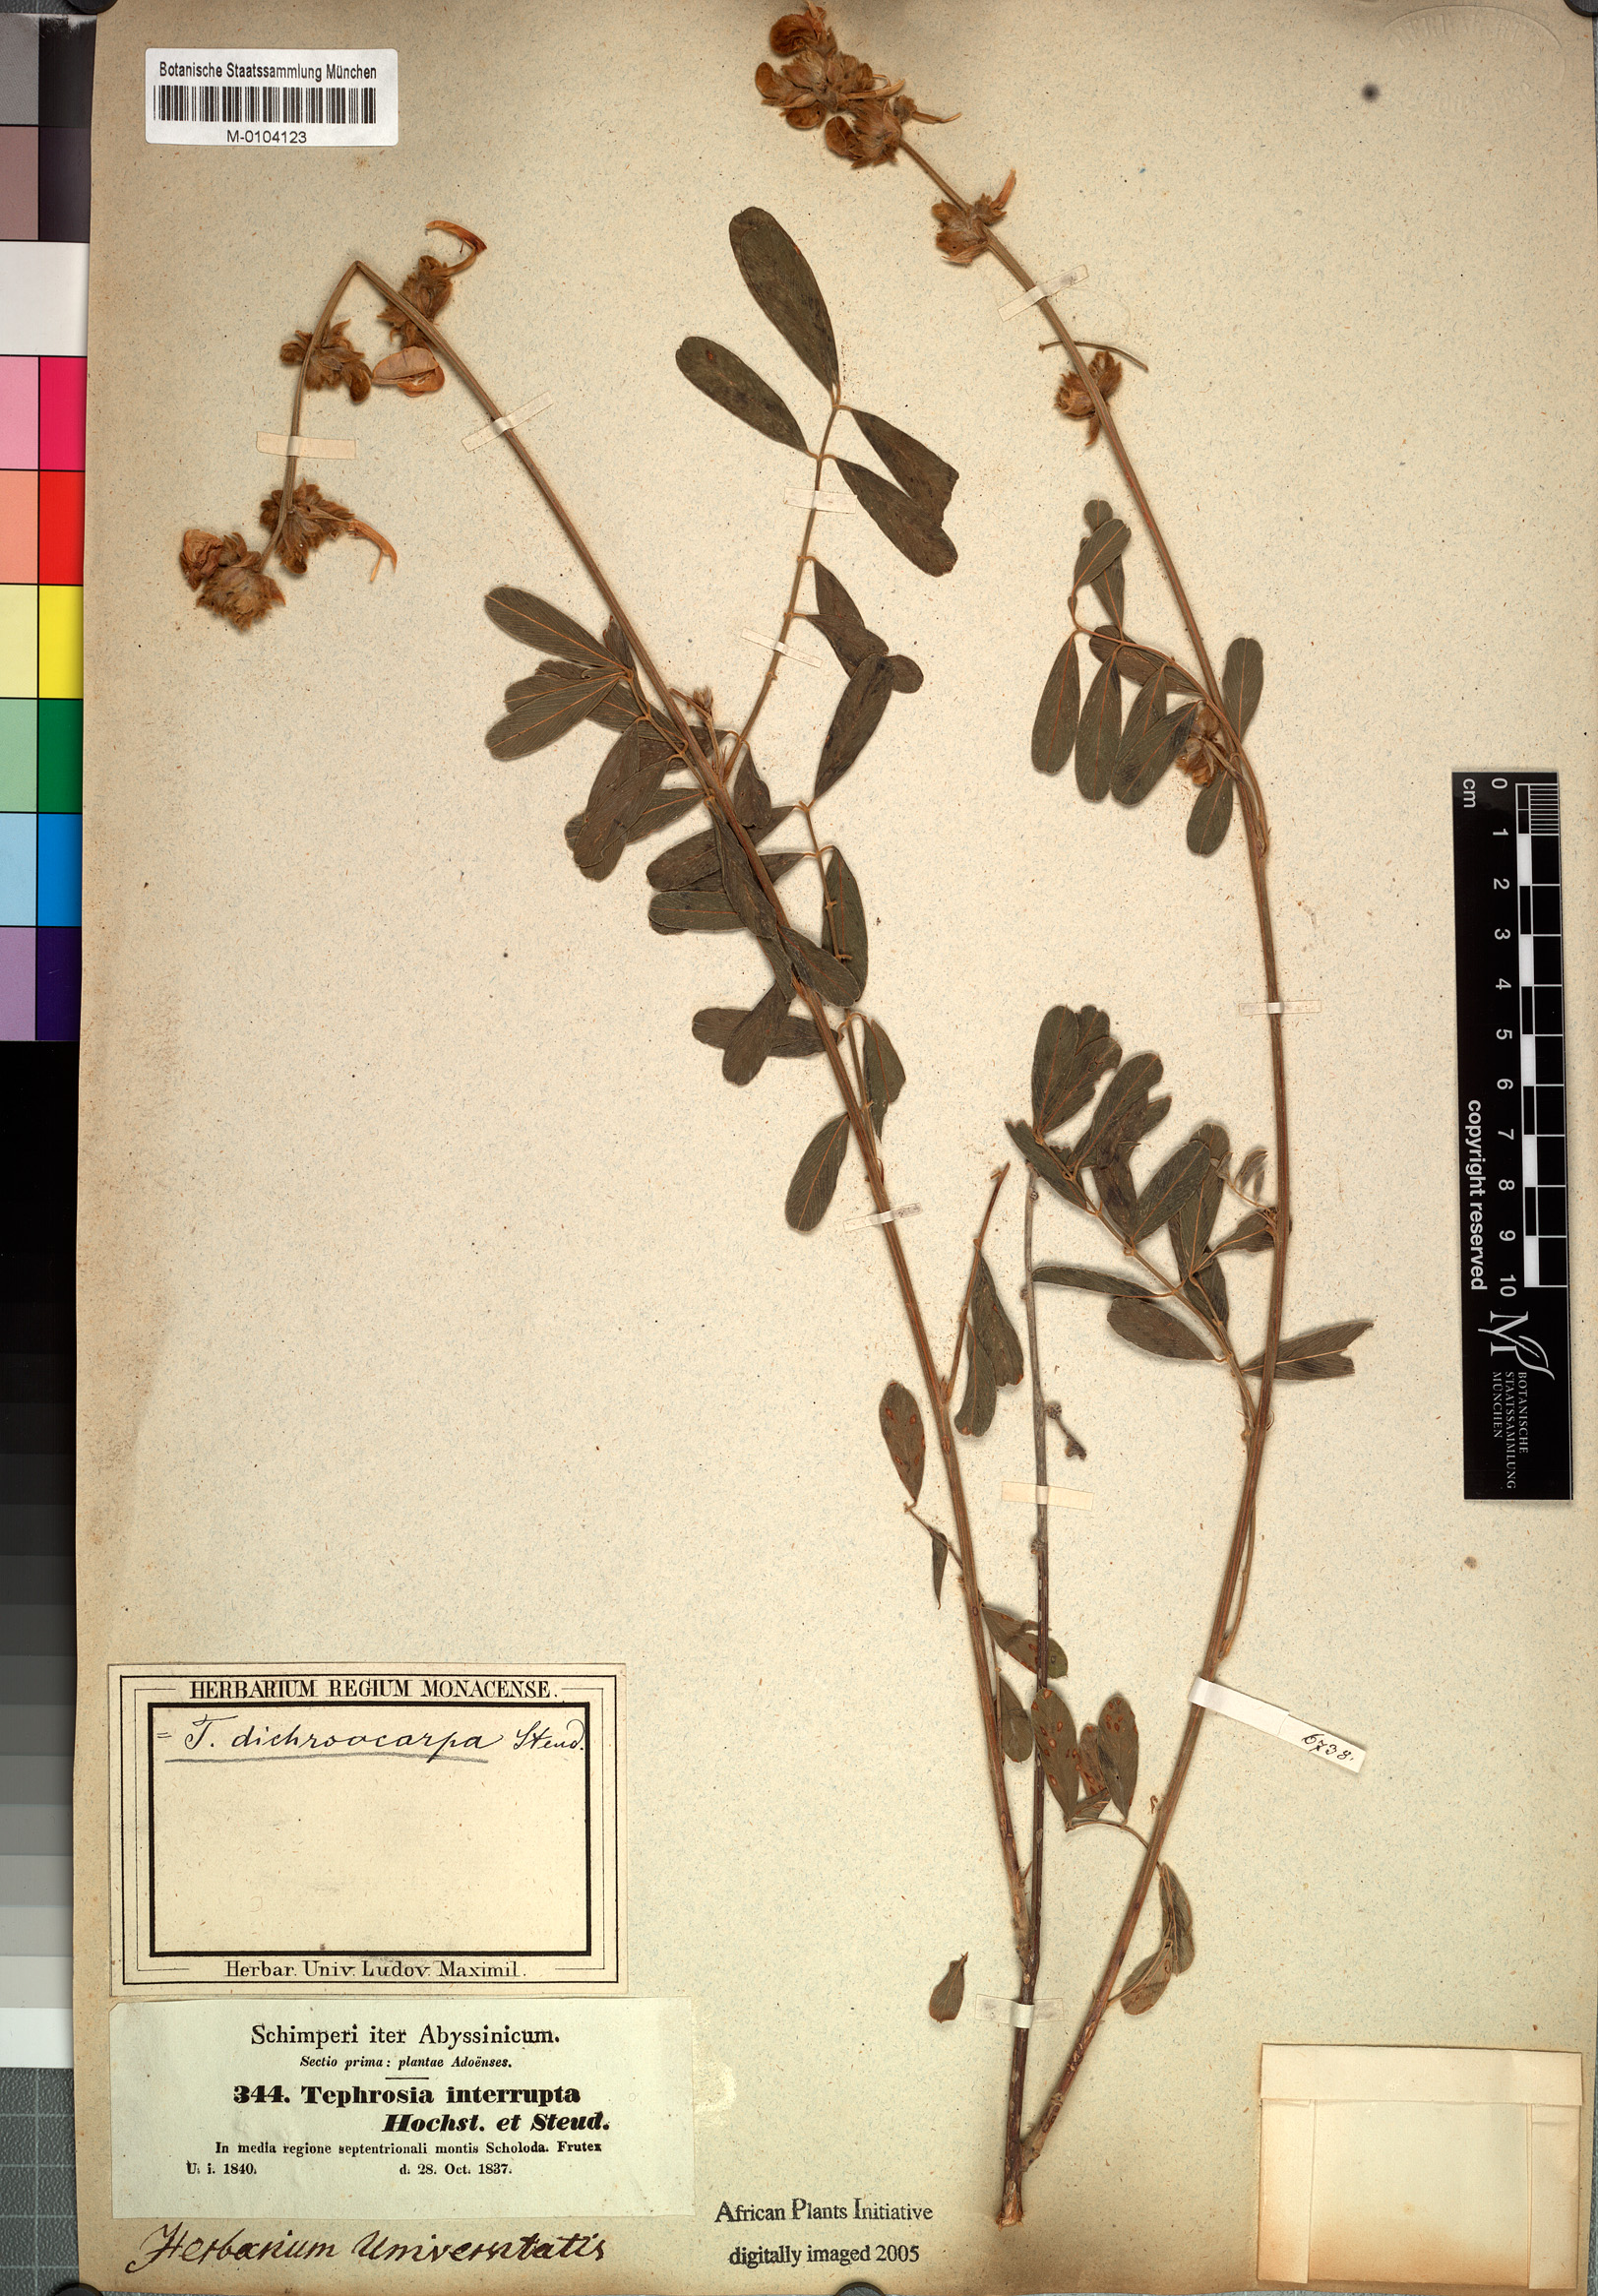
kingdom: Plantae
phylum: Tracheophyta
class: Magnoliopsida
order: Fabales
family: Fabaceae
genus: Tephrosia
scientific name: Tephrosia interrupta
